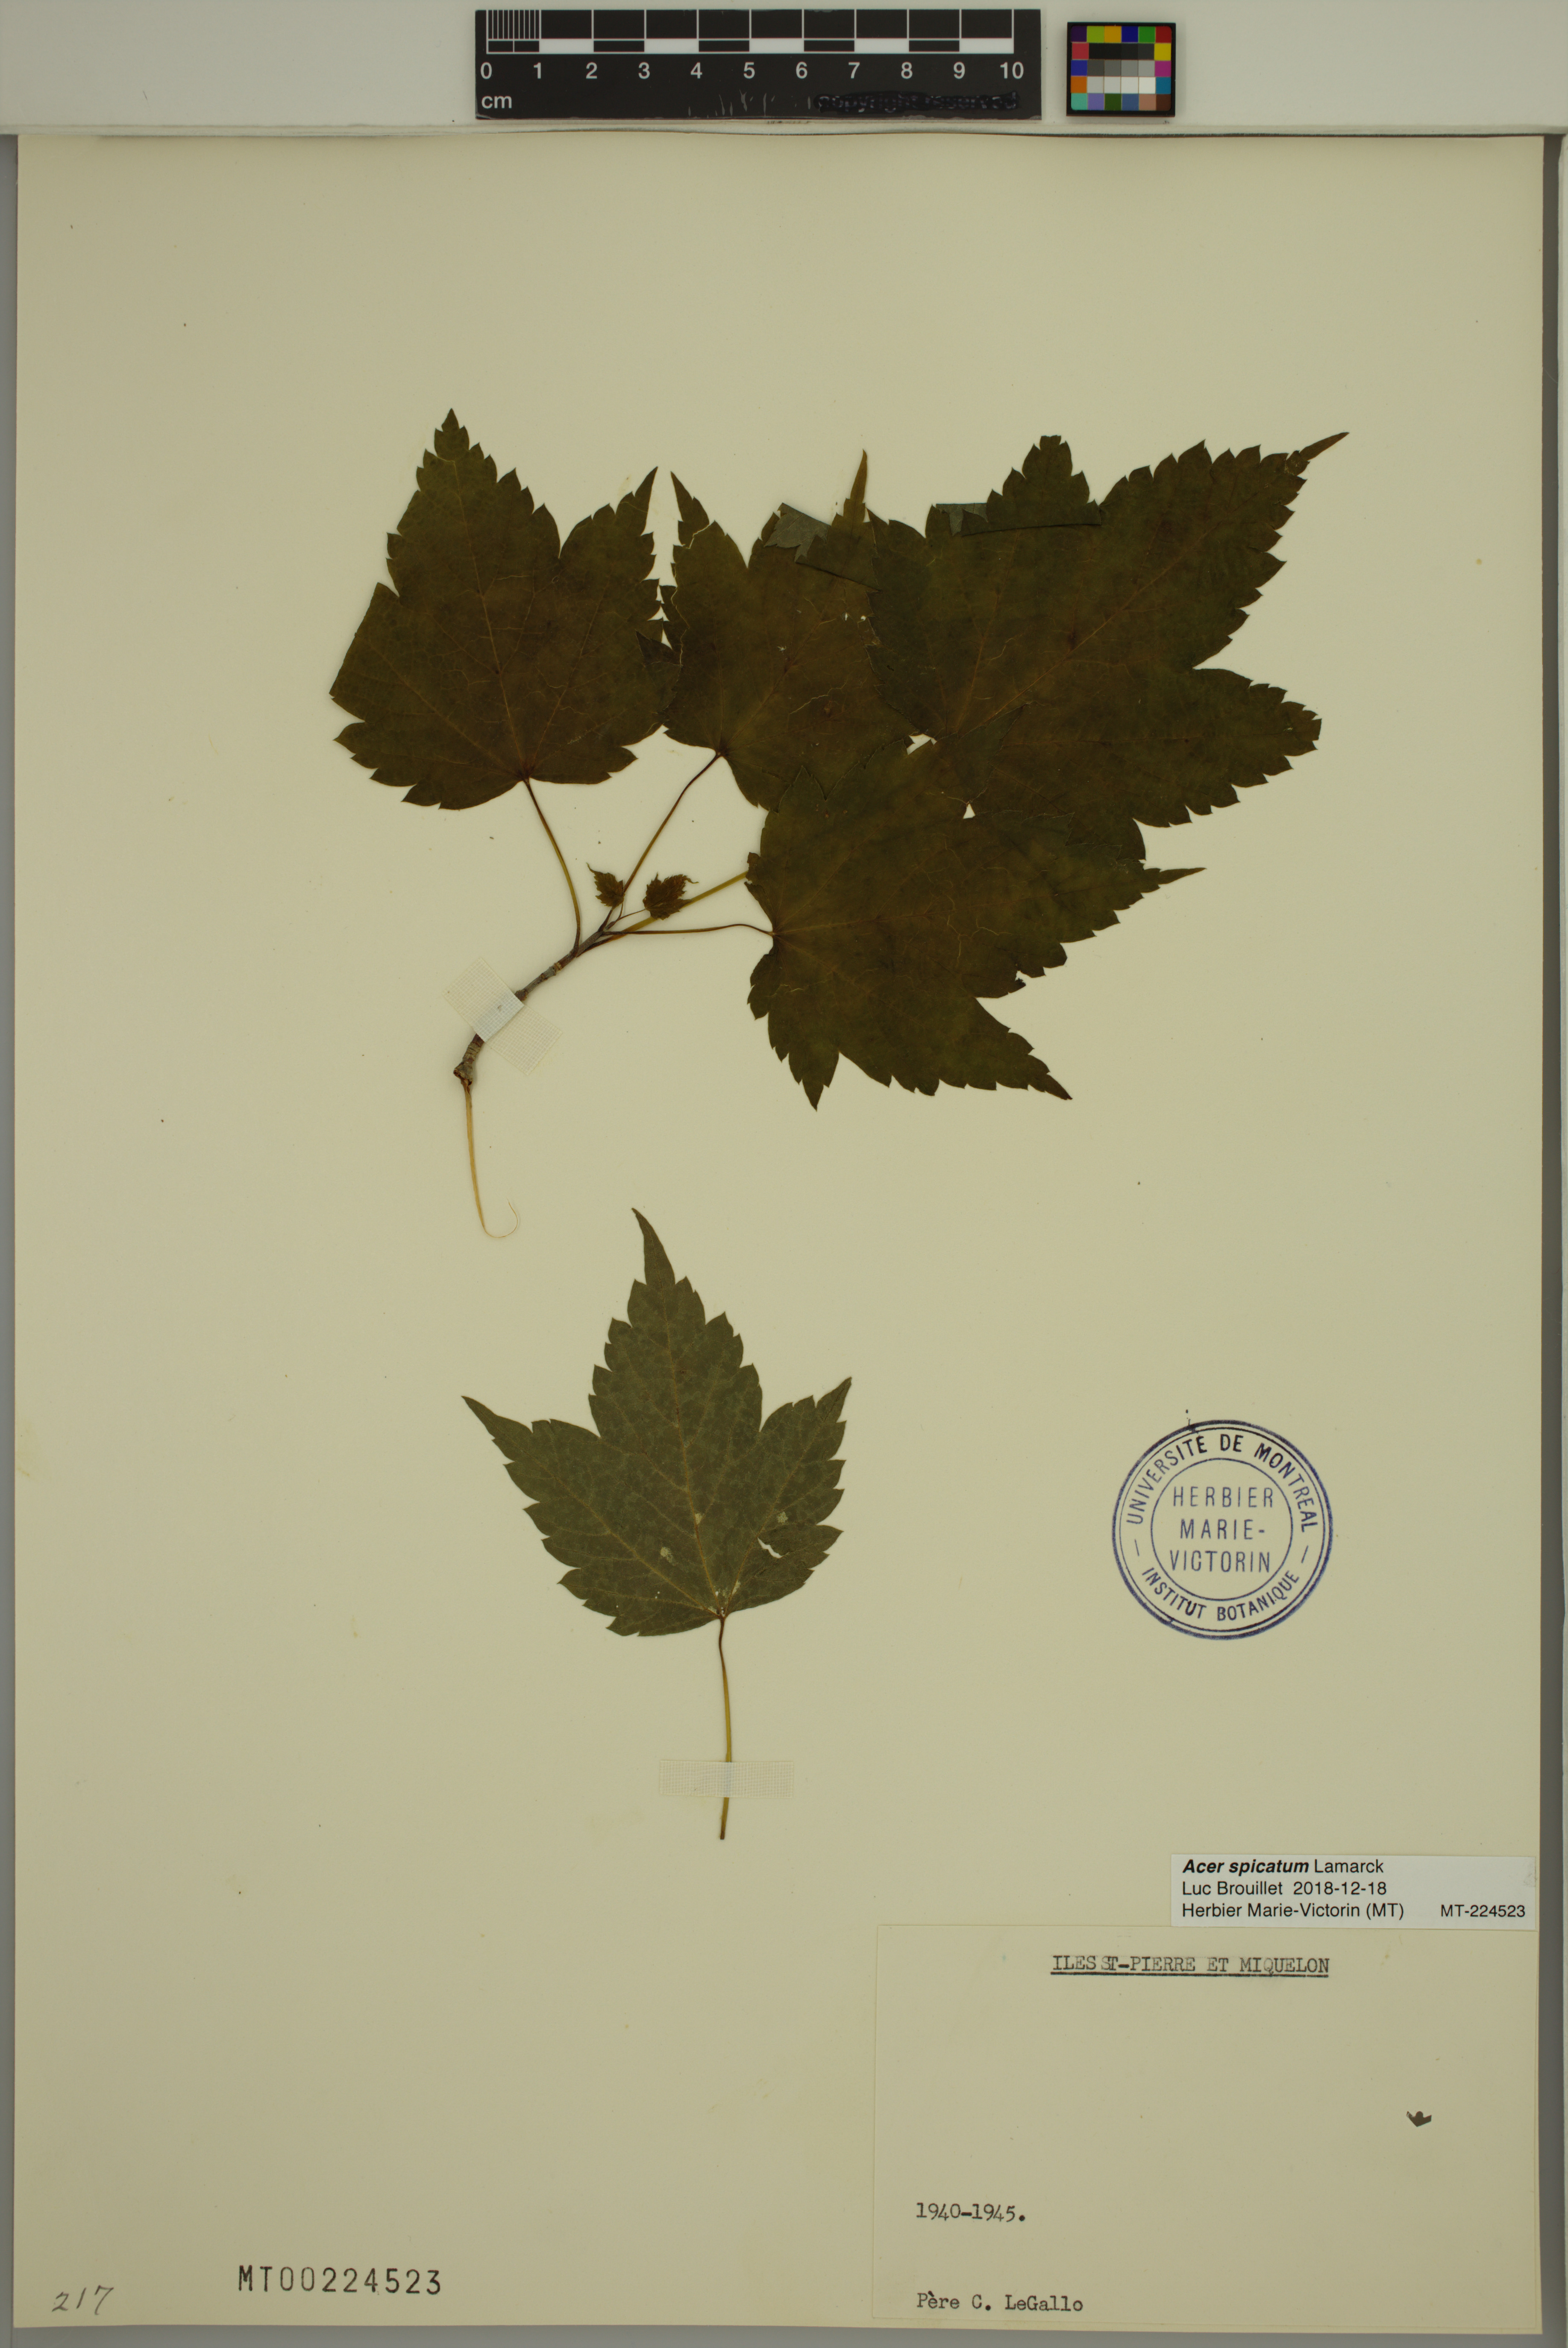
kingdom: Plantae
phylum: Tracheophyta
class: Magnoliopsida
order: Sapindales
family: Sapindaceae
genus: Acer
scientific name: Acer spicatum
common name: Mountain maple
